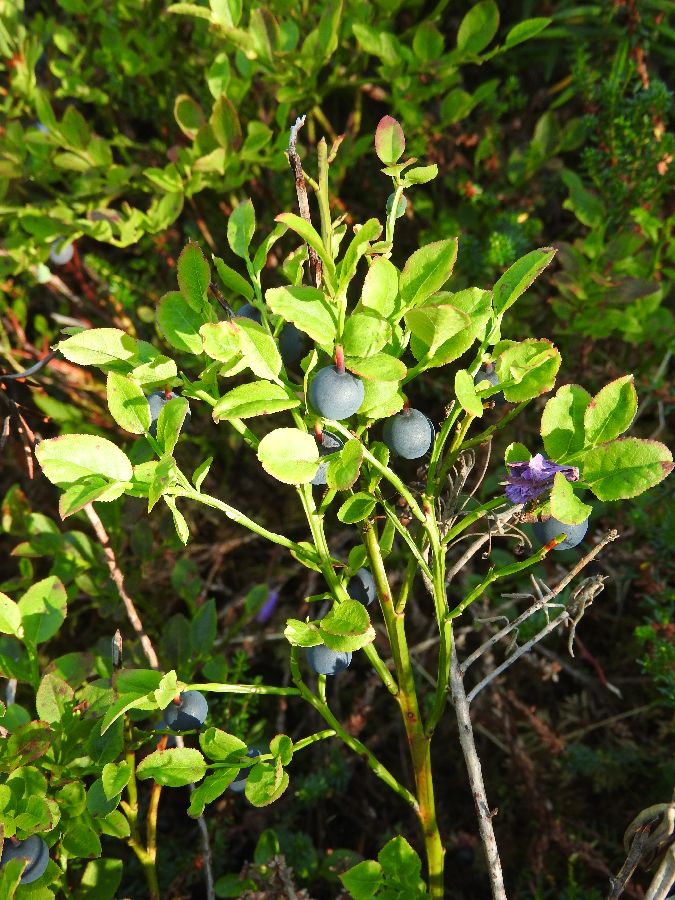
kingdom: Plantae
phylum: Tracheophyta
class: Magnoliopsida
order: Ericales
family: Ericaceae
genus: Vaccinium
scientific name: Vaccinium myrtillus
